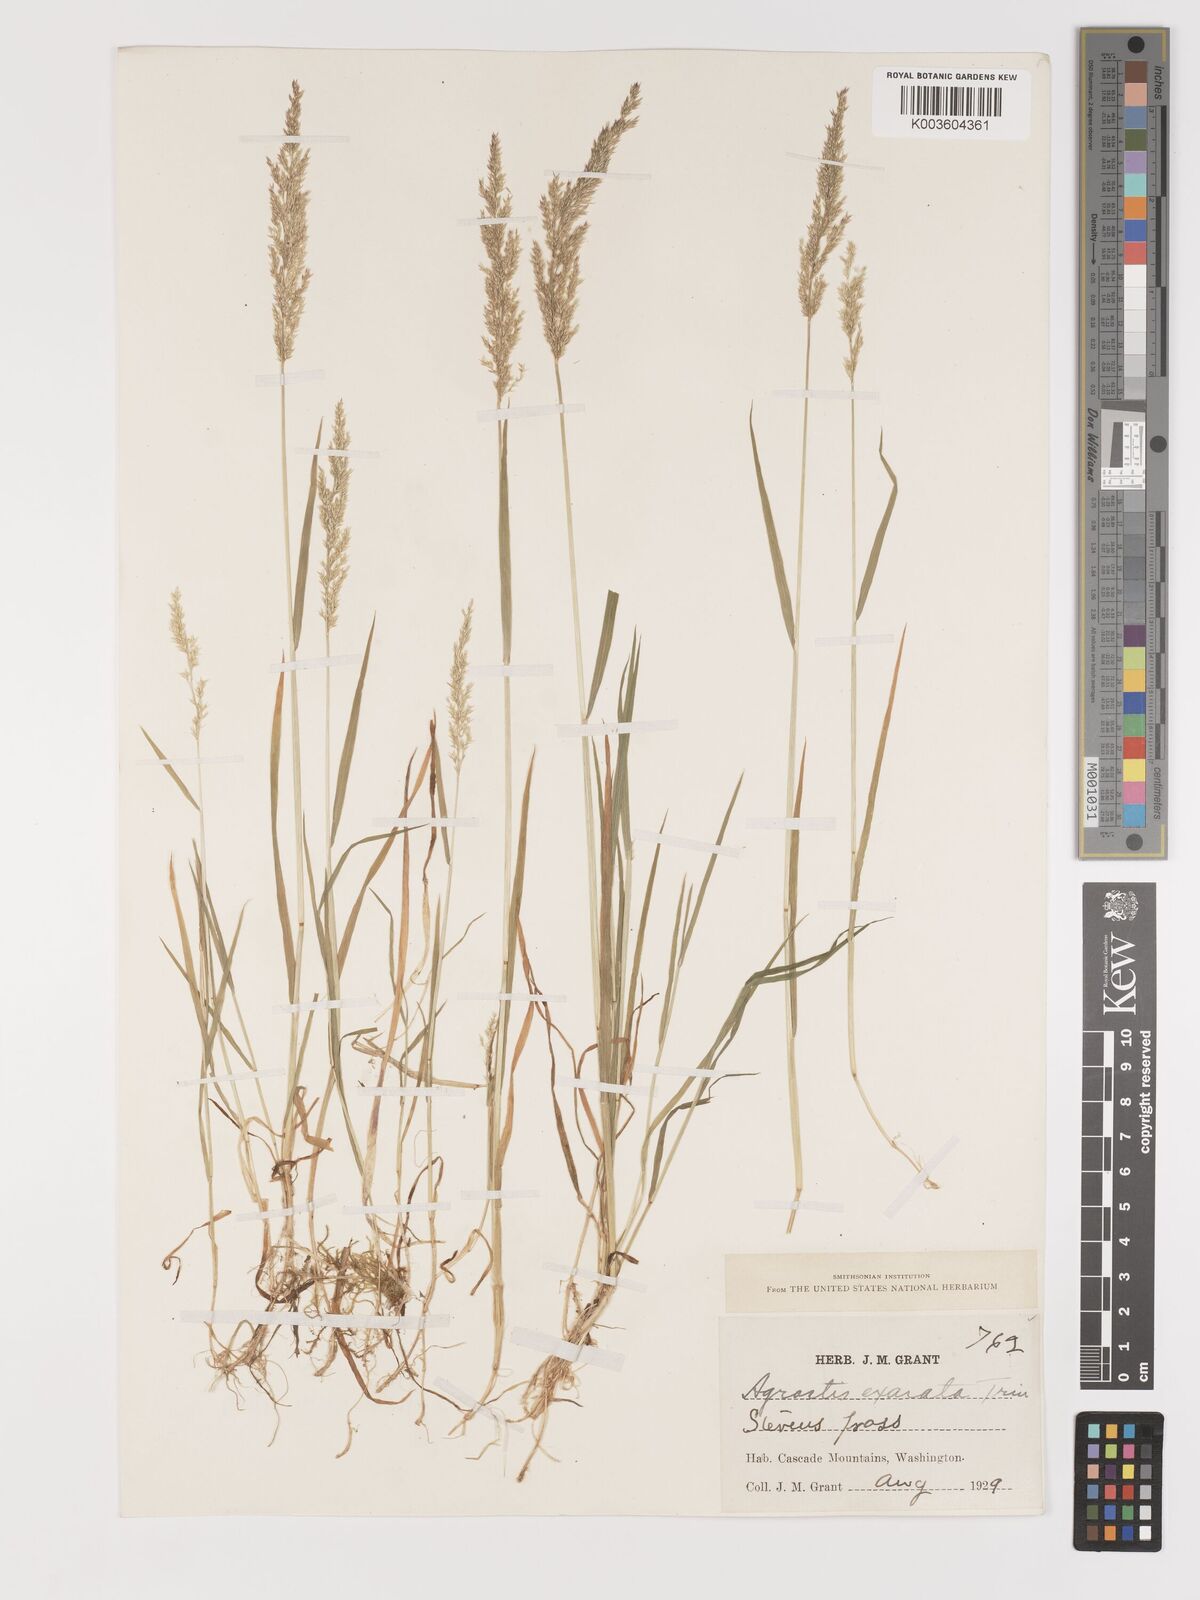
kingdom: Plantae
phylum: Tracheophyta
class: Liliopsida
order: Poales
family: Poaceae
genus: Agrostis
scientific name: Agrostis exarata
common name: Spike bent
